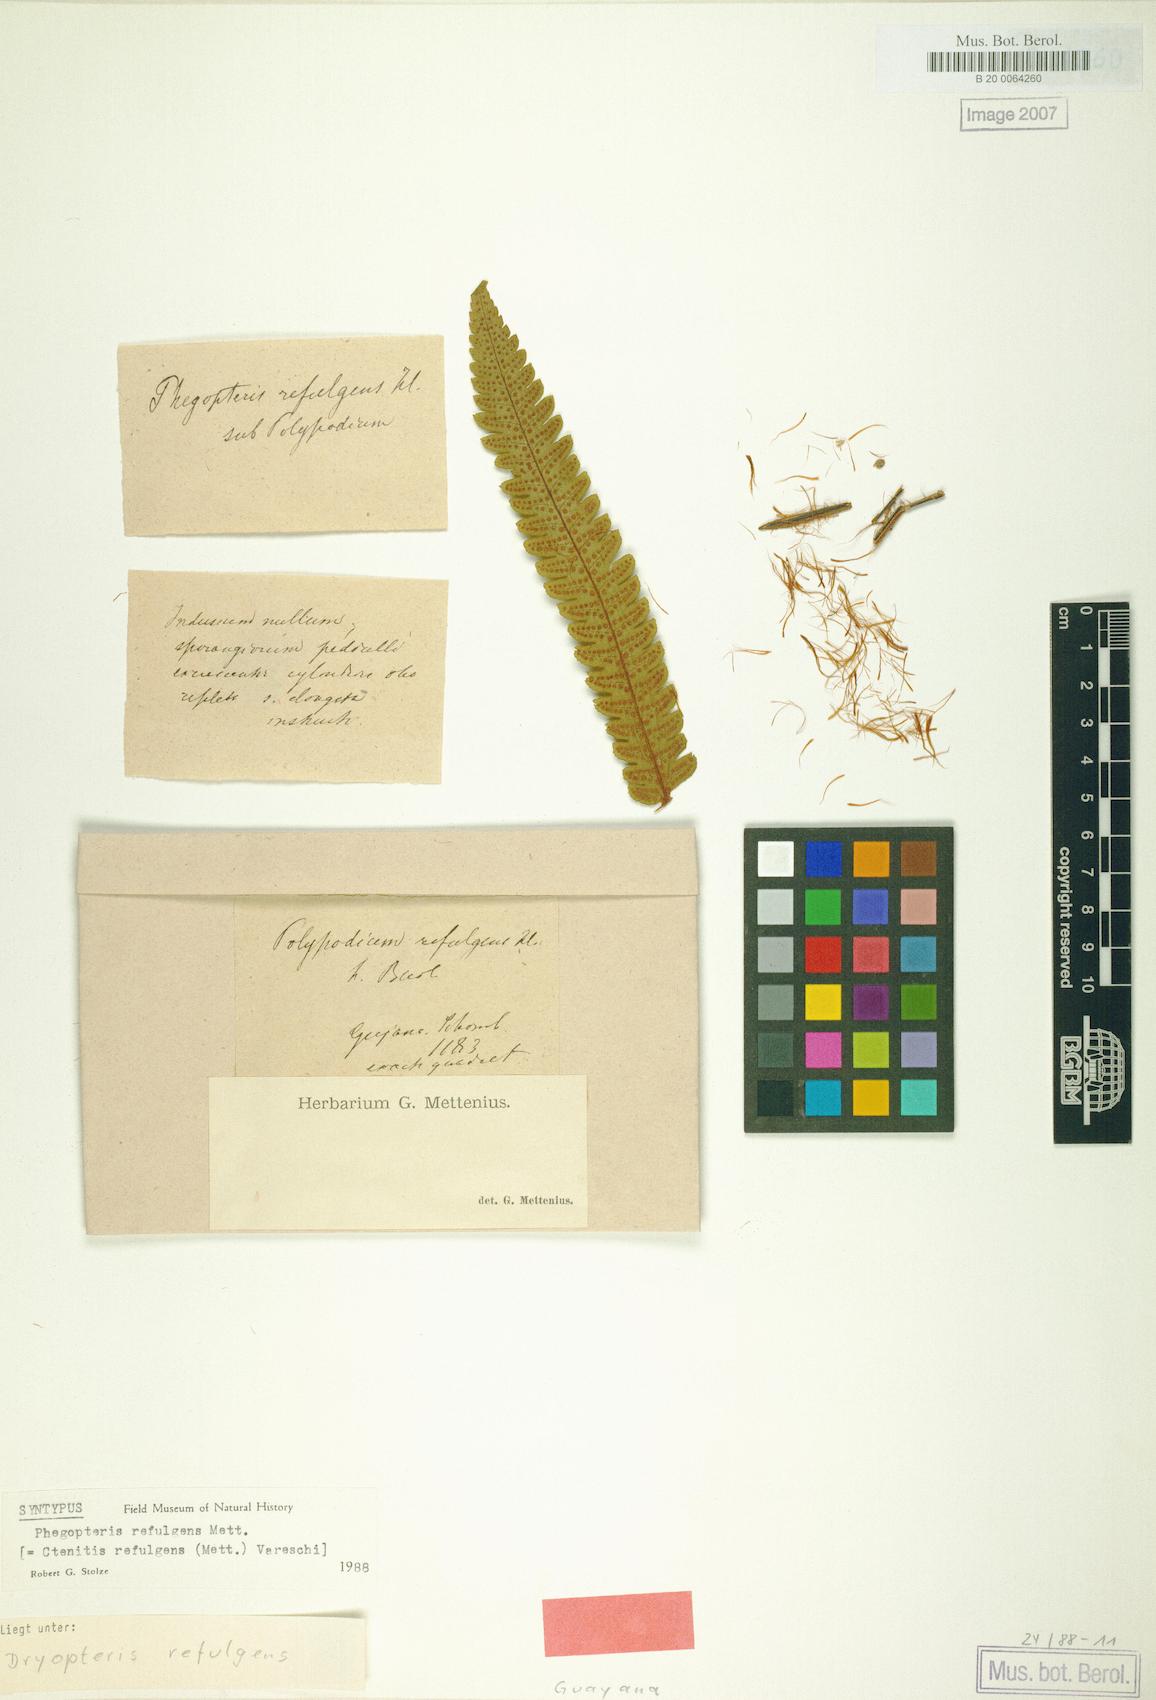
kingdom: Plantae
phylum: Tracheophyta
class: Polypodiopsida
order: Polypodiales
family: Dryopteridaceae
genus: Ctenitis
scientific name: Ctenitis refulgens
